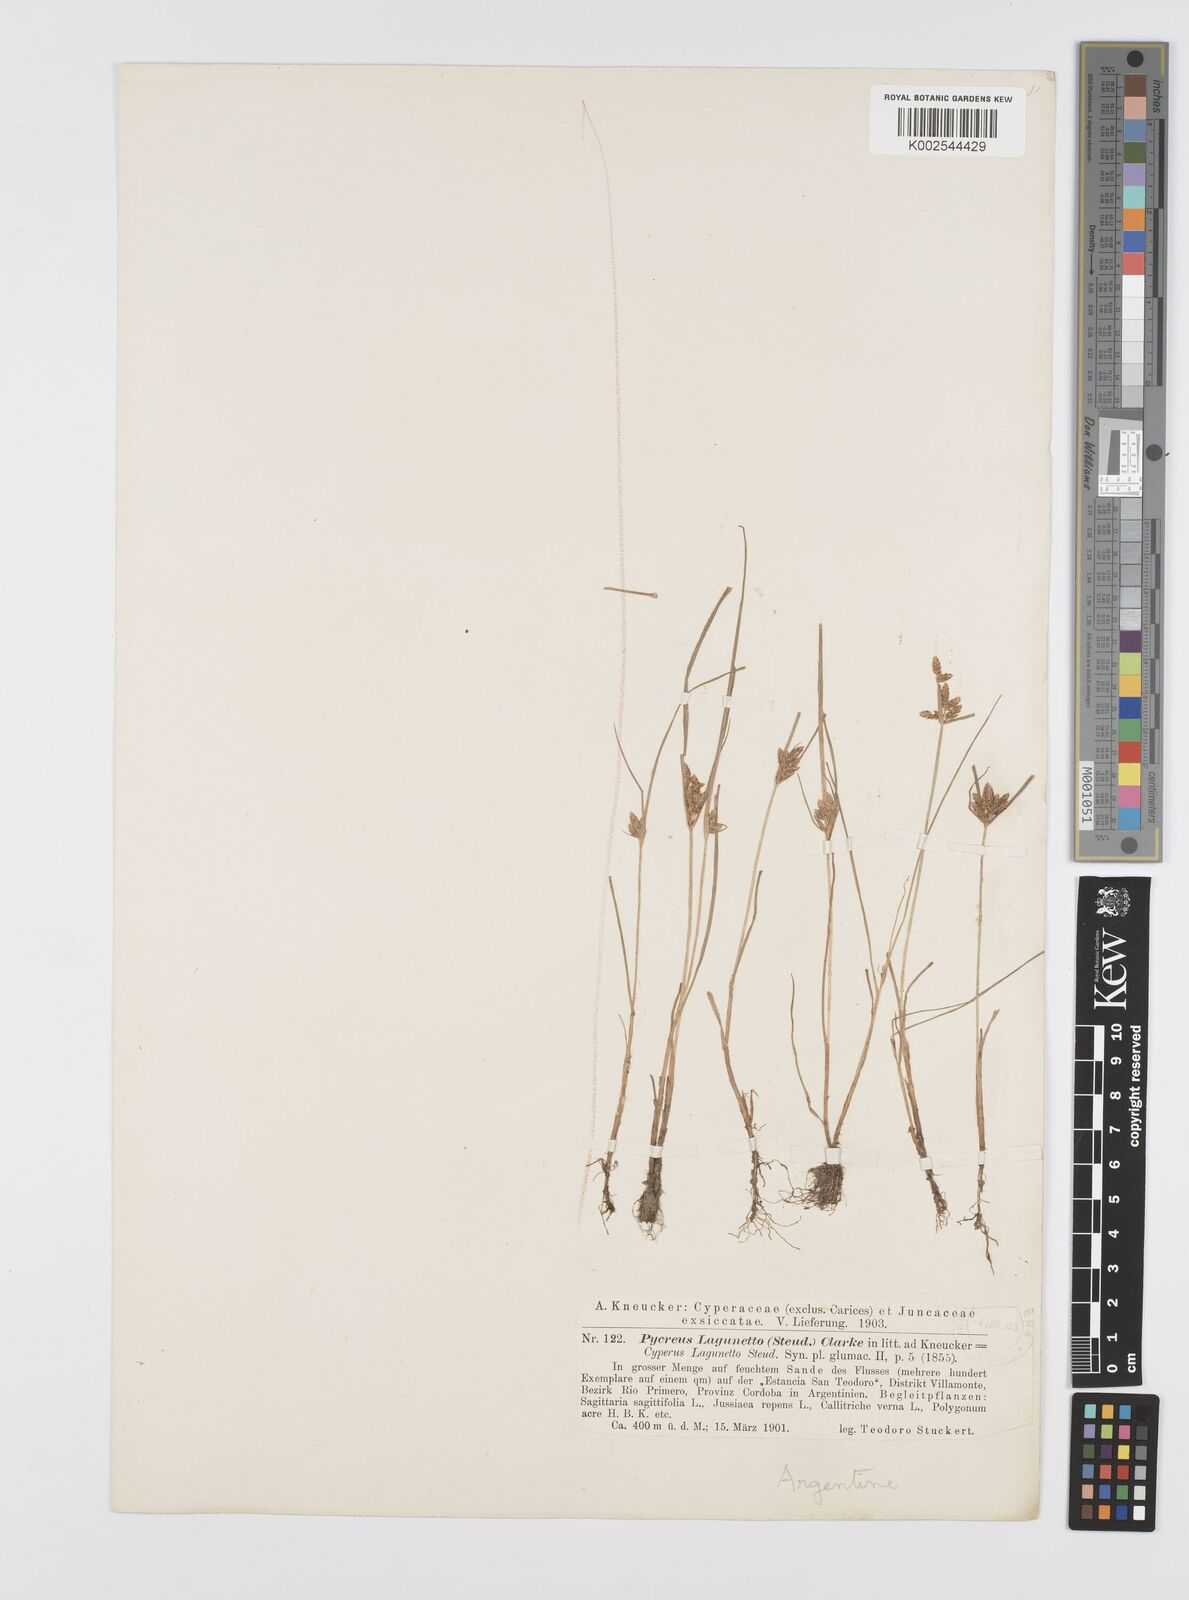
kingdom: Plantae
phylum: Tracheophyta
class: Liliopsida
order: Poales
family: Cyperaceae
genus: Cyperus
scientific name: Cyperus bipartitus
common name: Brook flatsedge
